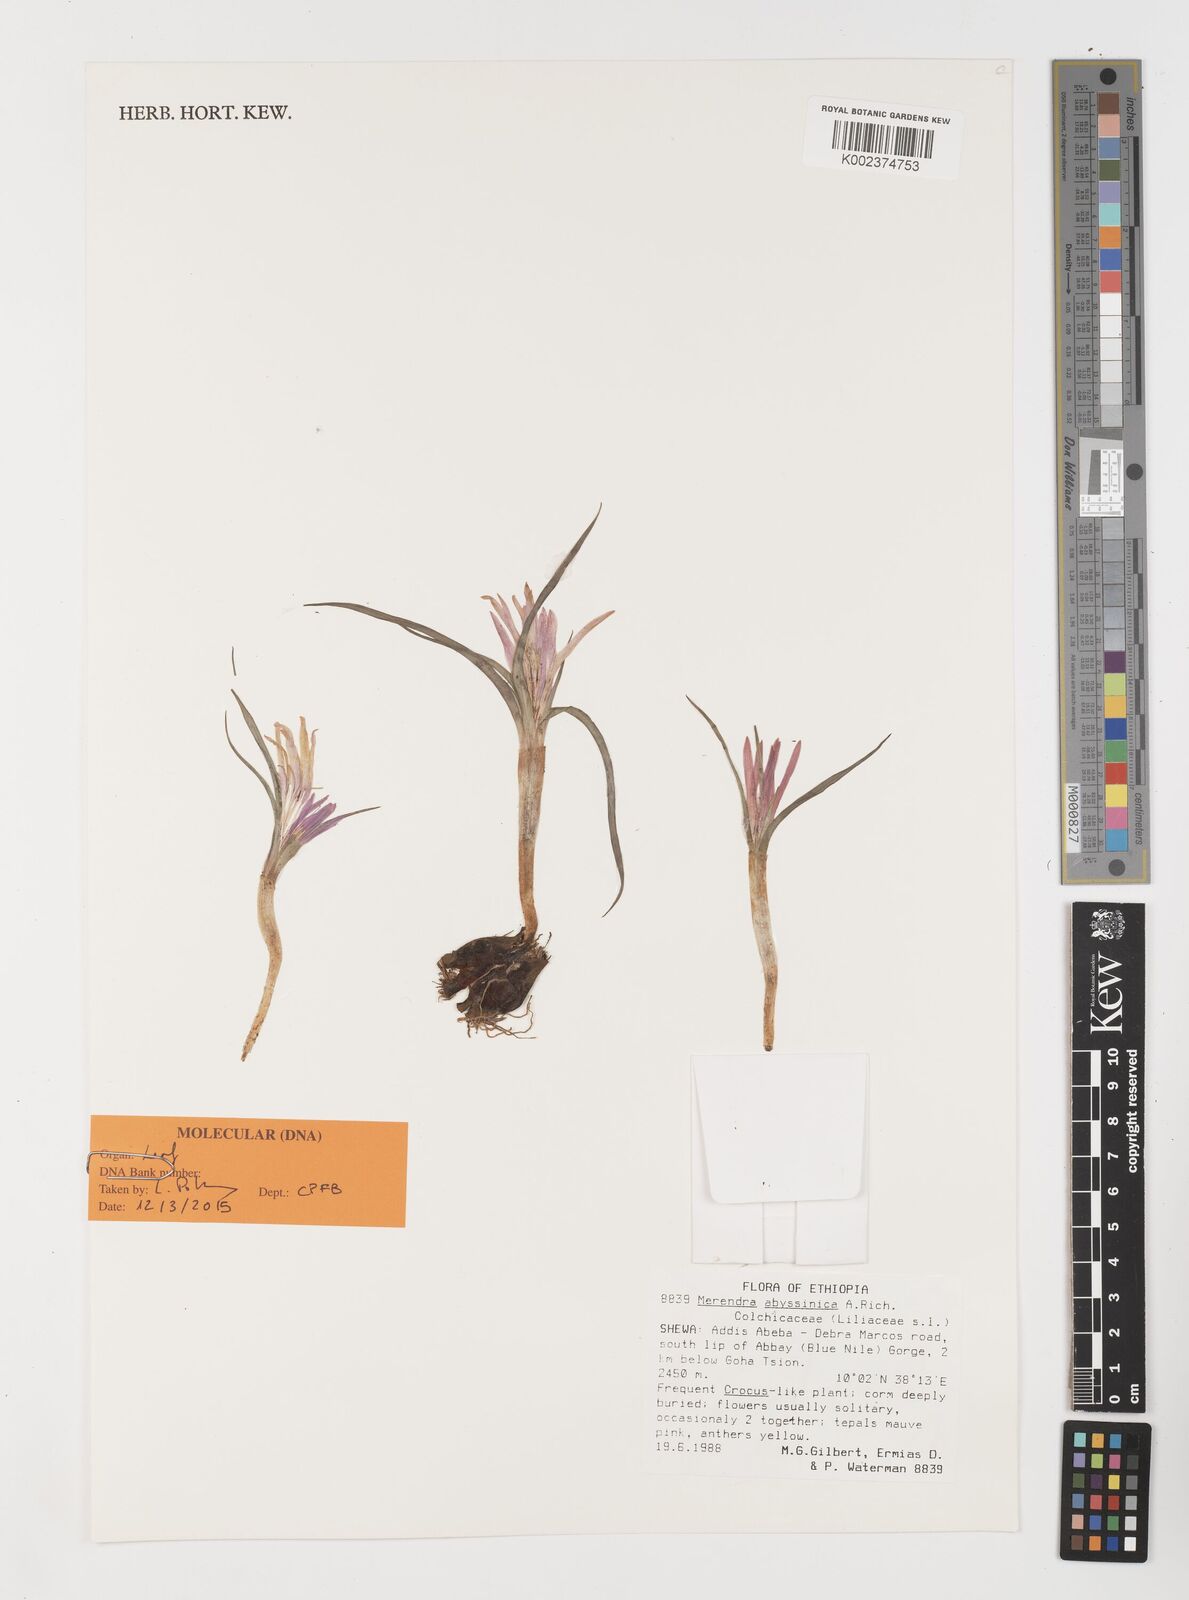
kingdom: Plantae
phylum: Tracheophyta
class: Liliopsida
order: Liliales
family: Colchicaceae
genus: Colchicum
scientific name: Colchicum
